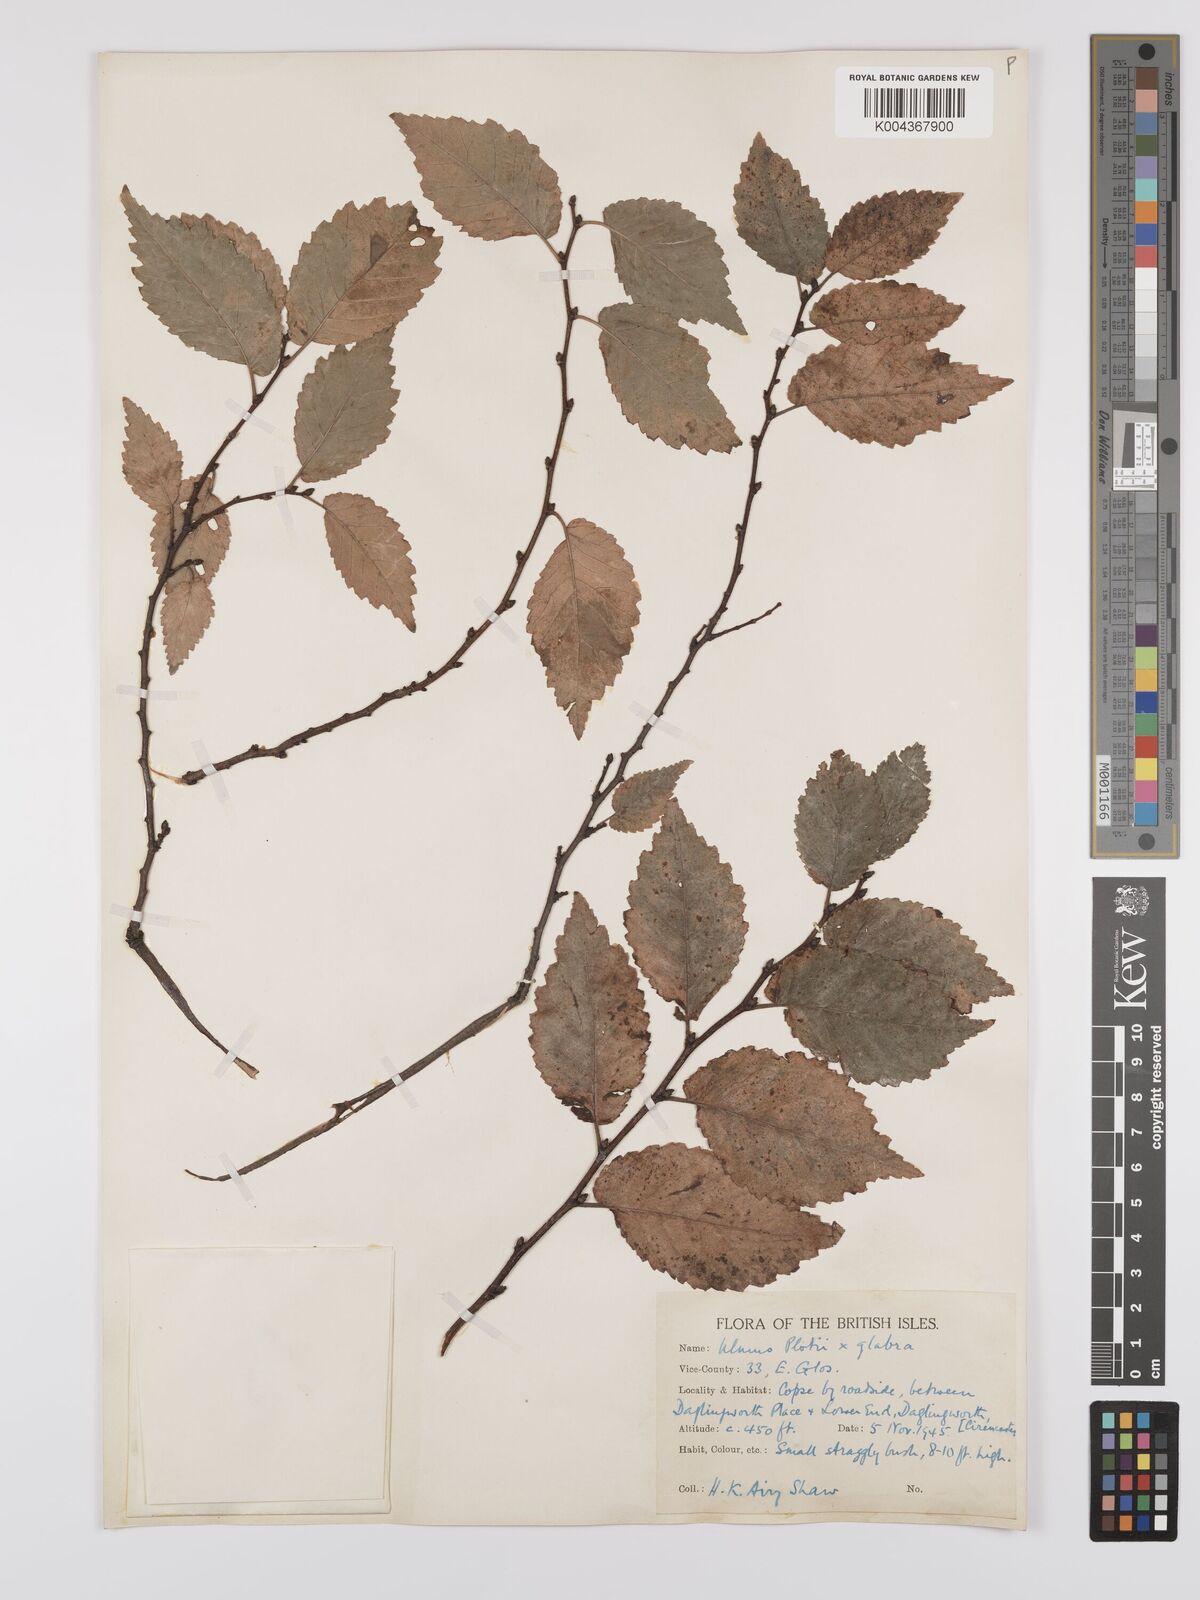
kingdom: Plantae
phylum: Tracheophyta
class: Magnoliopsida
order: Rosales
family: Ulmaceae
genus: Ulmus
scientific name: Ulmus glabra
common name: Wych elm
